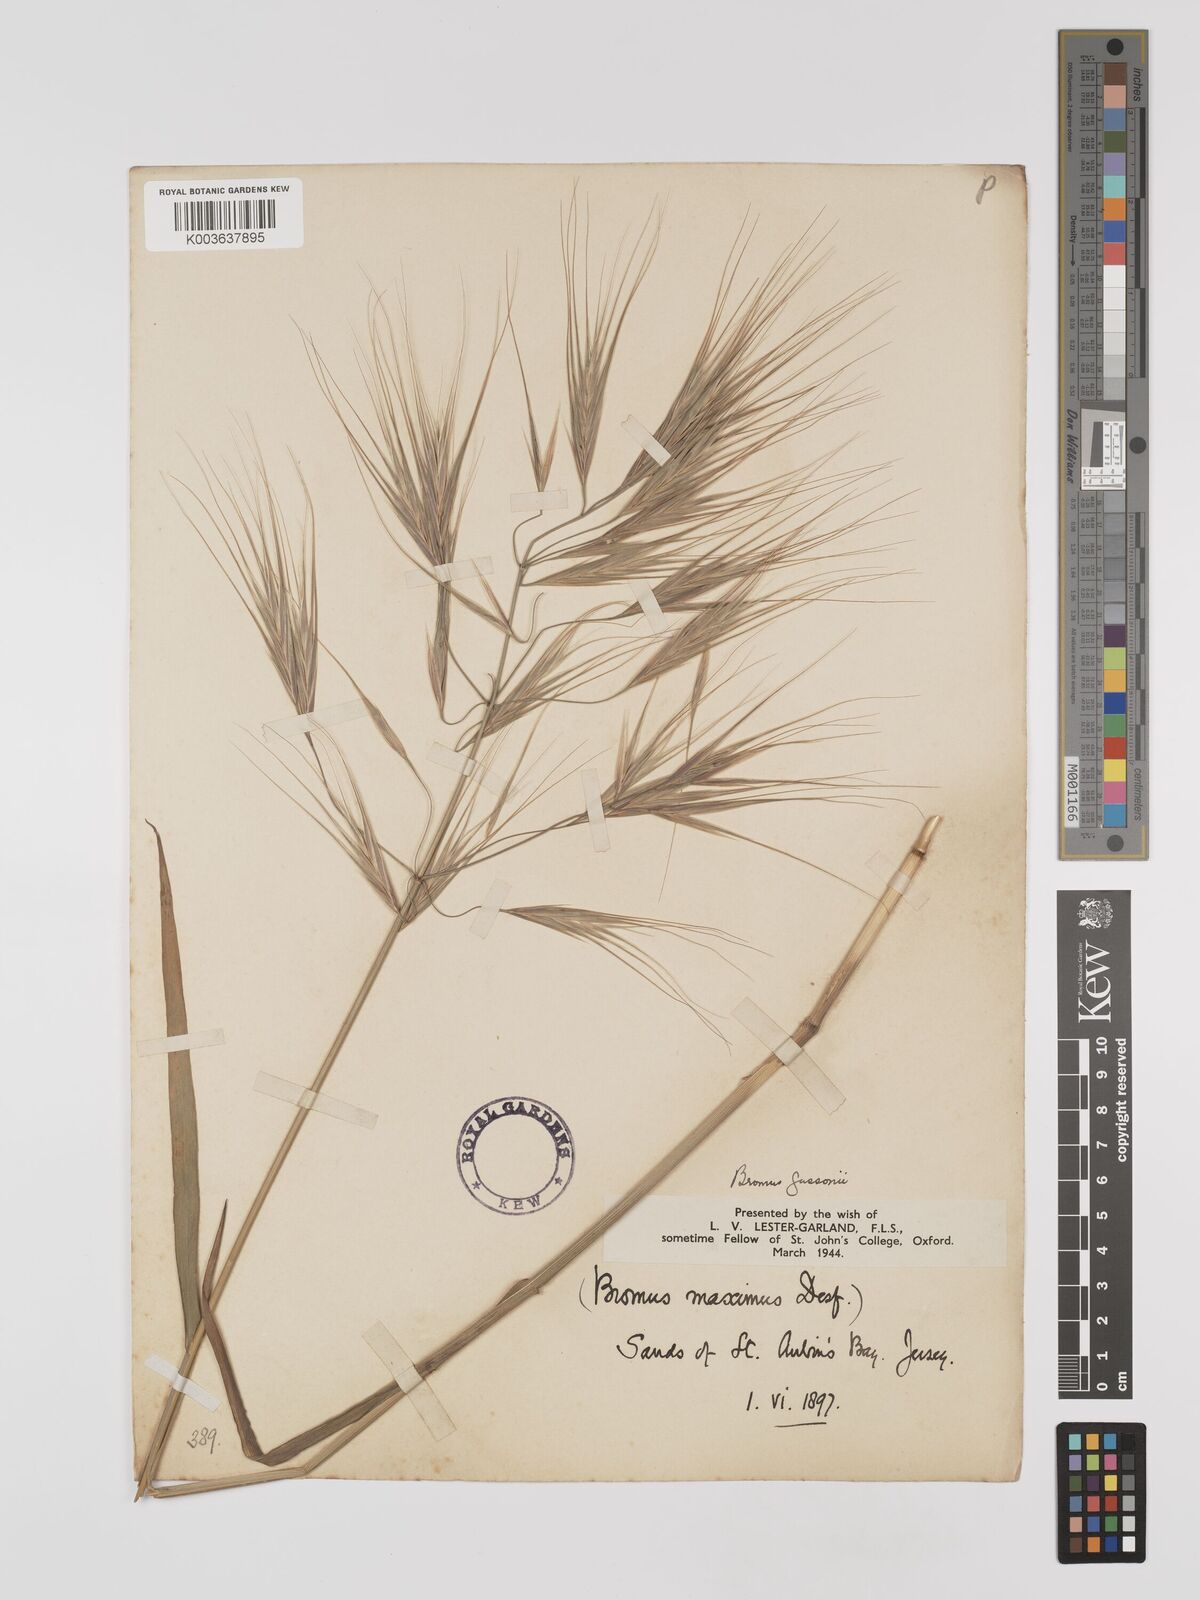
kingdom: Plantae
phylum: Tracheophyta
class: Liliopsida
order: Poales
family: Poaceae
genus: Bromus
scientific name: Bromus
